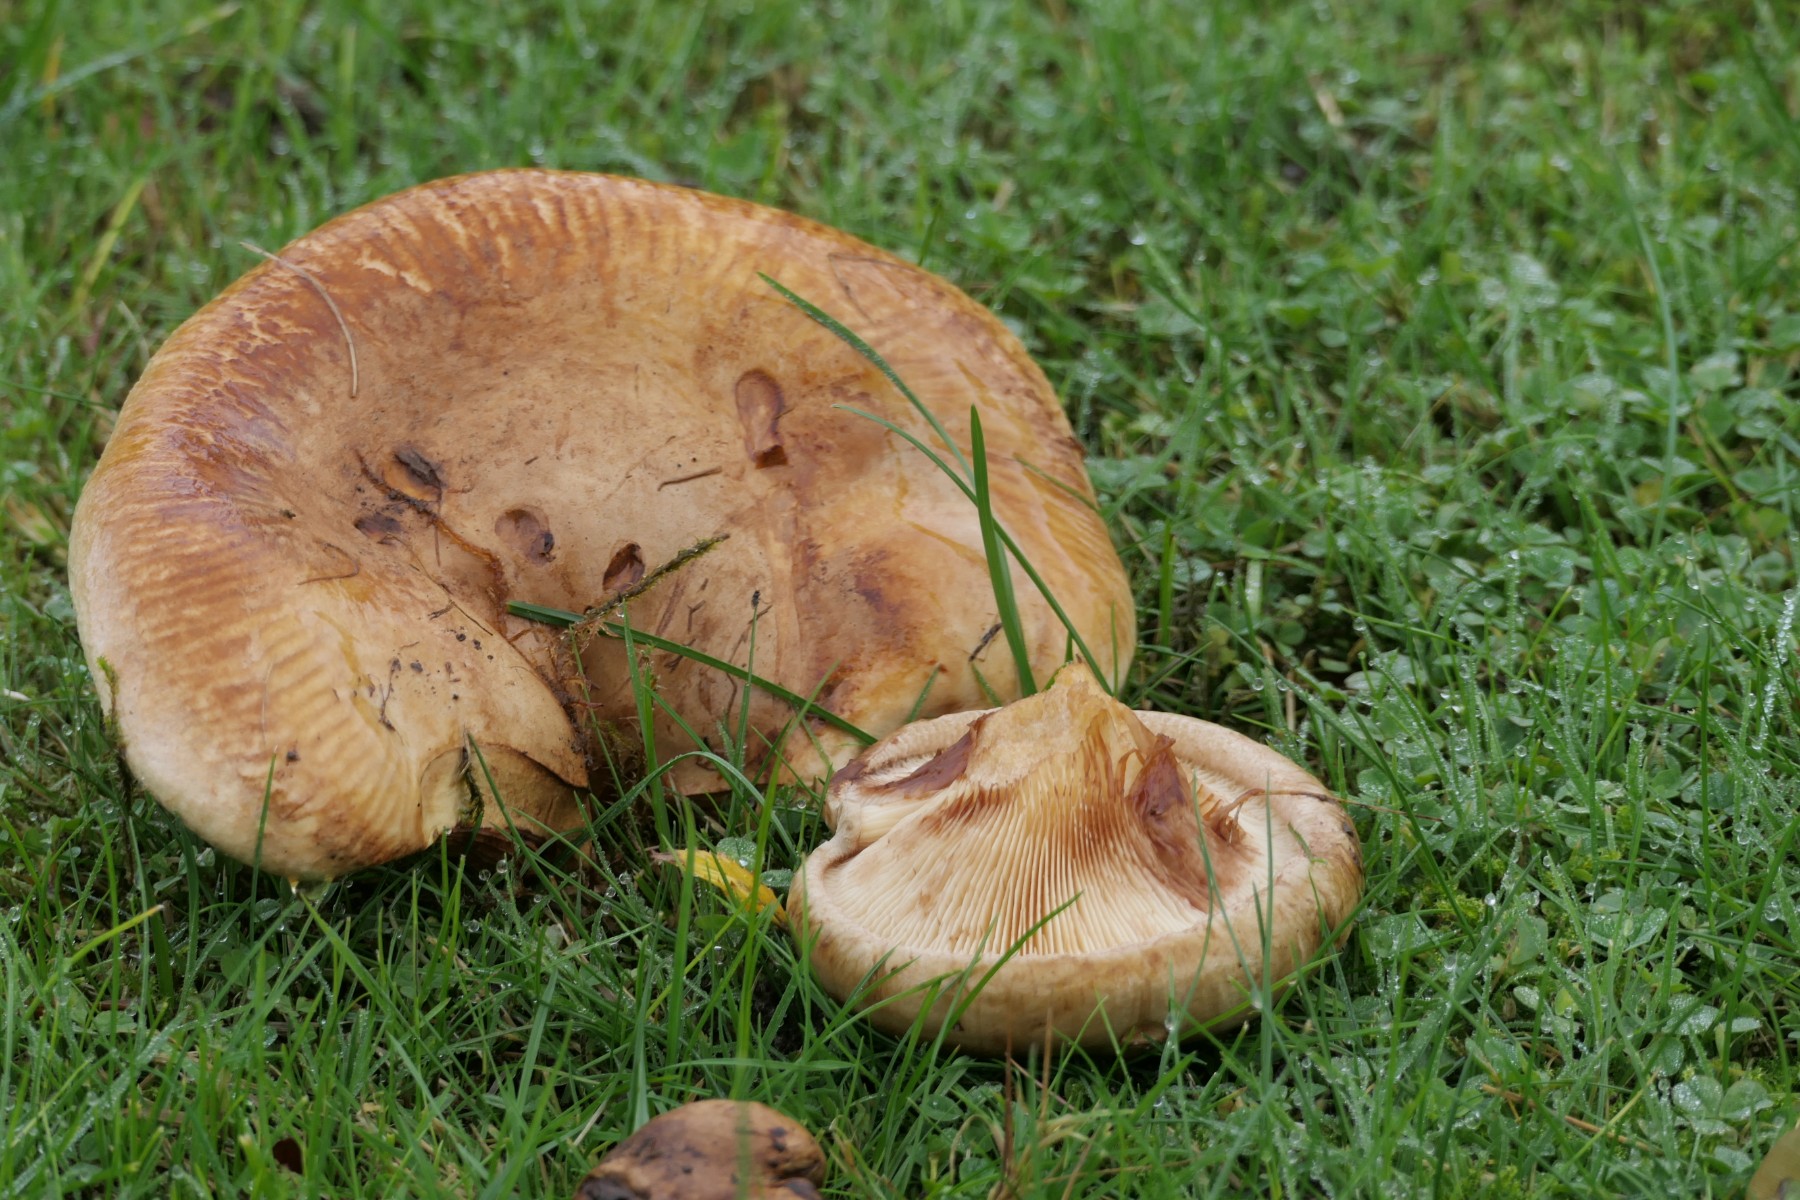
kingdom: Fungi
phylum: Basidiomycota
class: Agaricomycetes
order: Boletales
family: Paxillaceae
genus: Paxillus
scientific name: Paxillus
